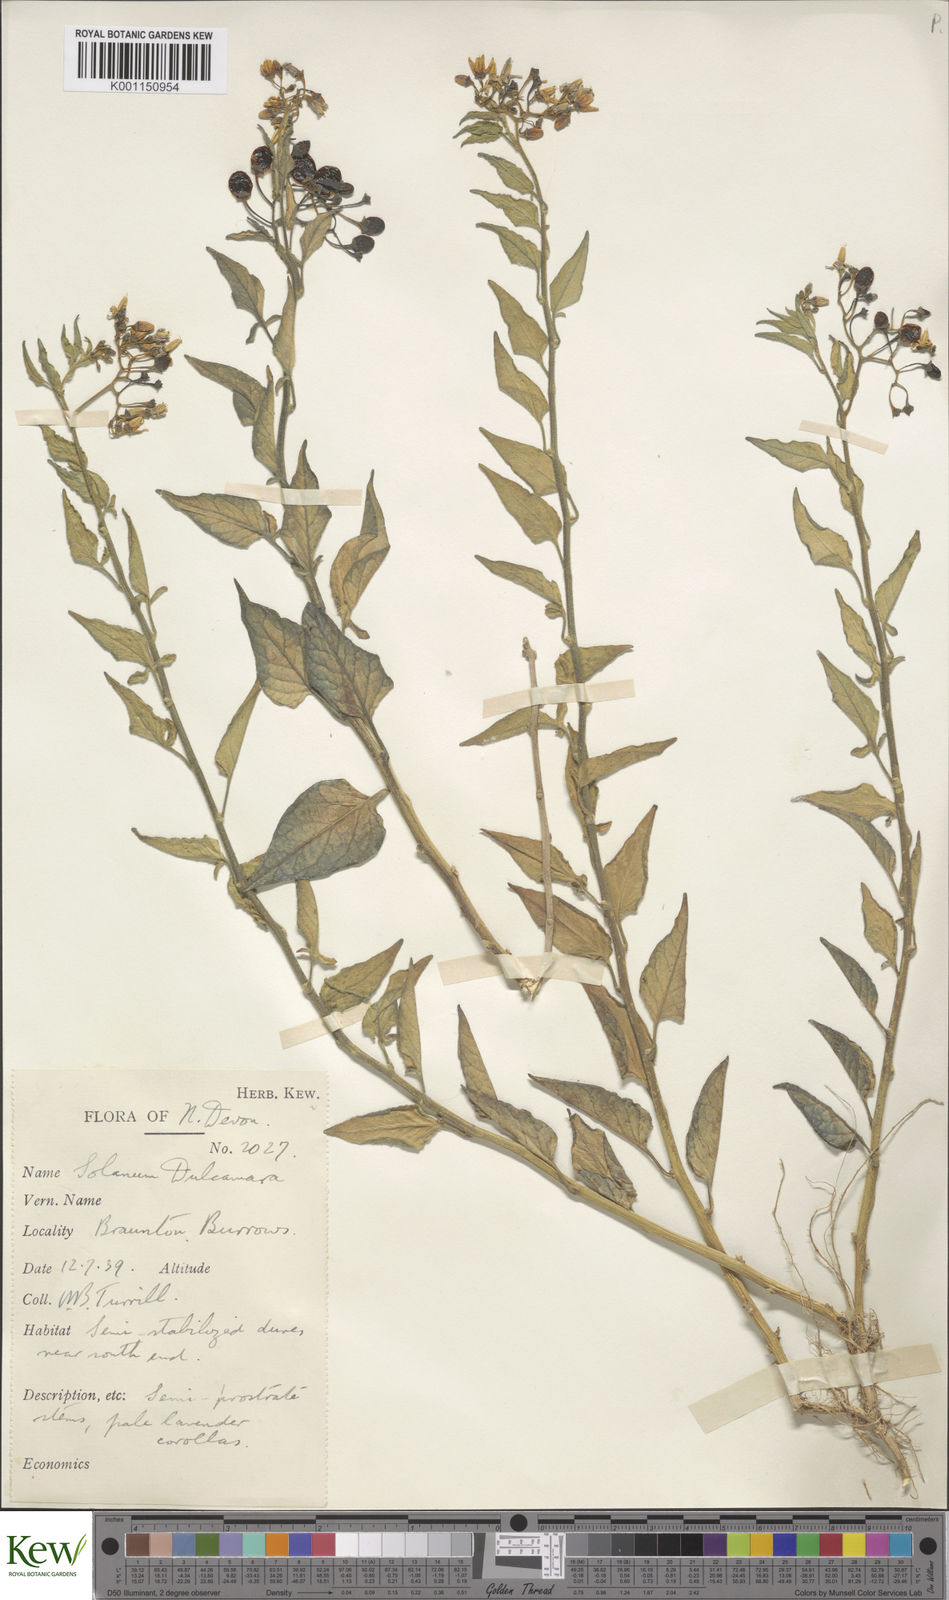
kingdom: Plantae
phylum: Tracheophyta
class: Magnoliopsida
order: Solanales
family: Solanaceae
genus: Solanum
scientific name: Solanum dulcamara
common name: Climbing nightshade
